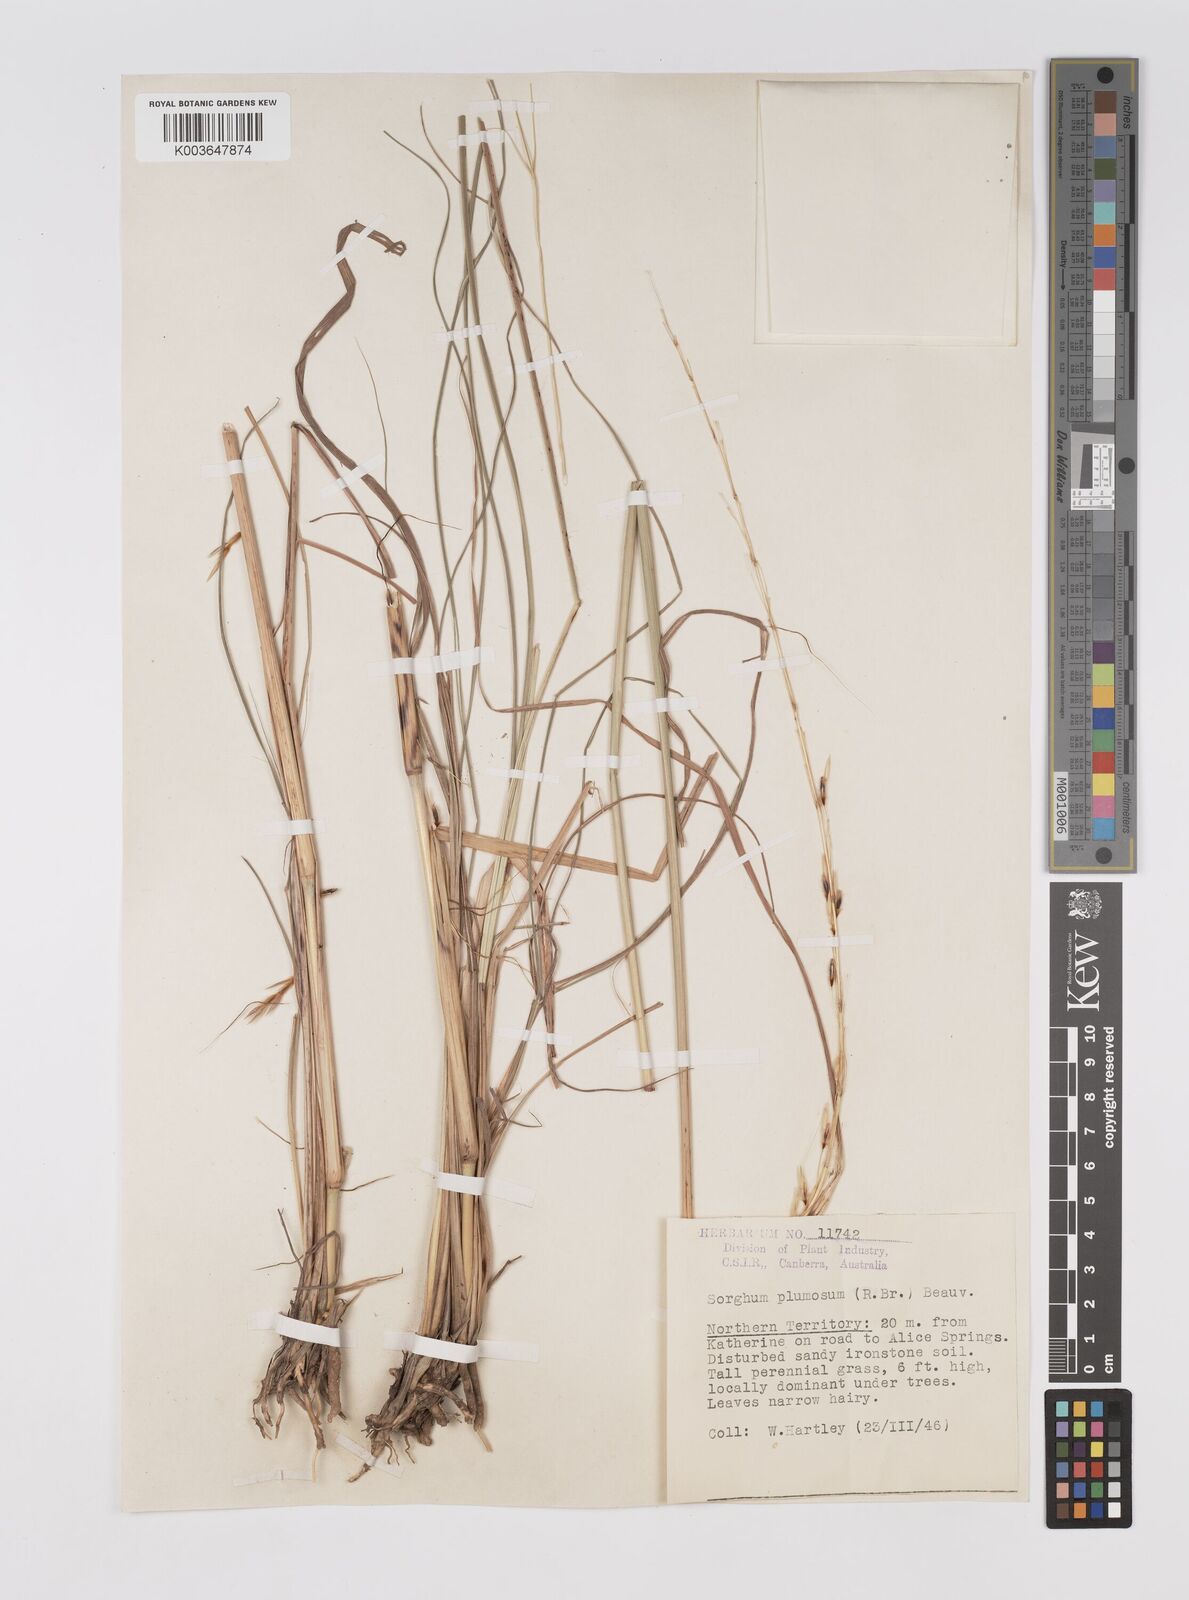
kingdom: Plantae
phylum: Tracheophyta
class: Liliopsida
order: Poales
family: Poaceae
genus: Sarga
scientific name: Sarga plumosa
